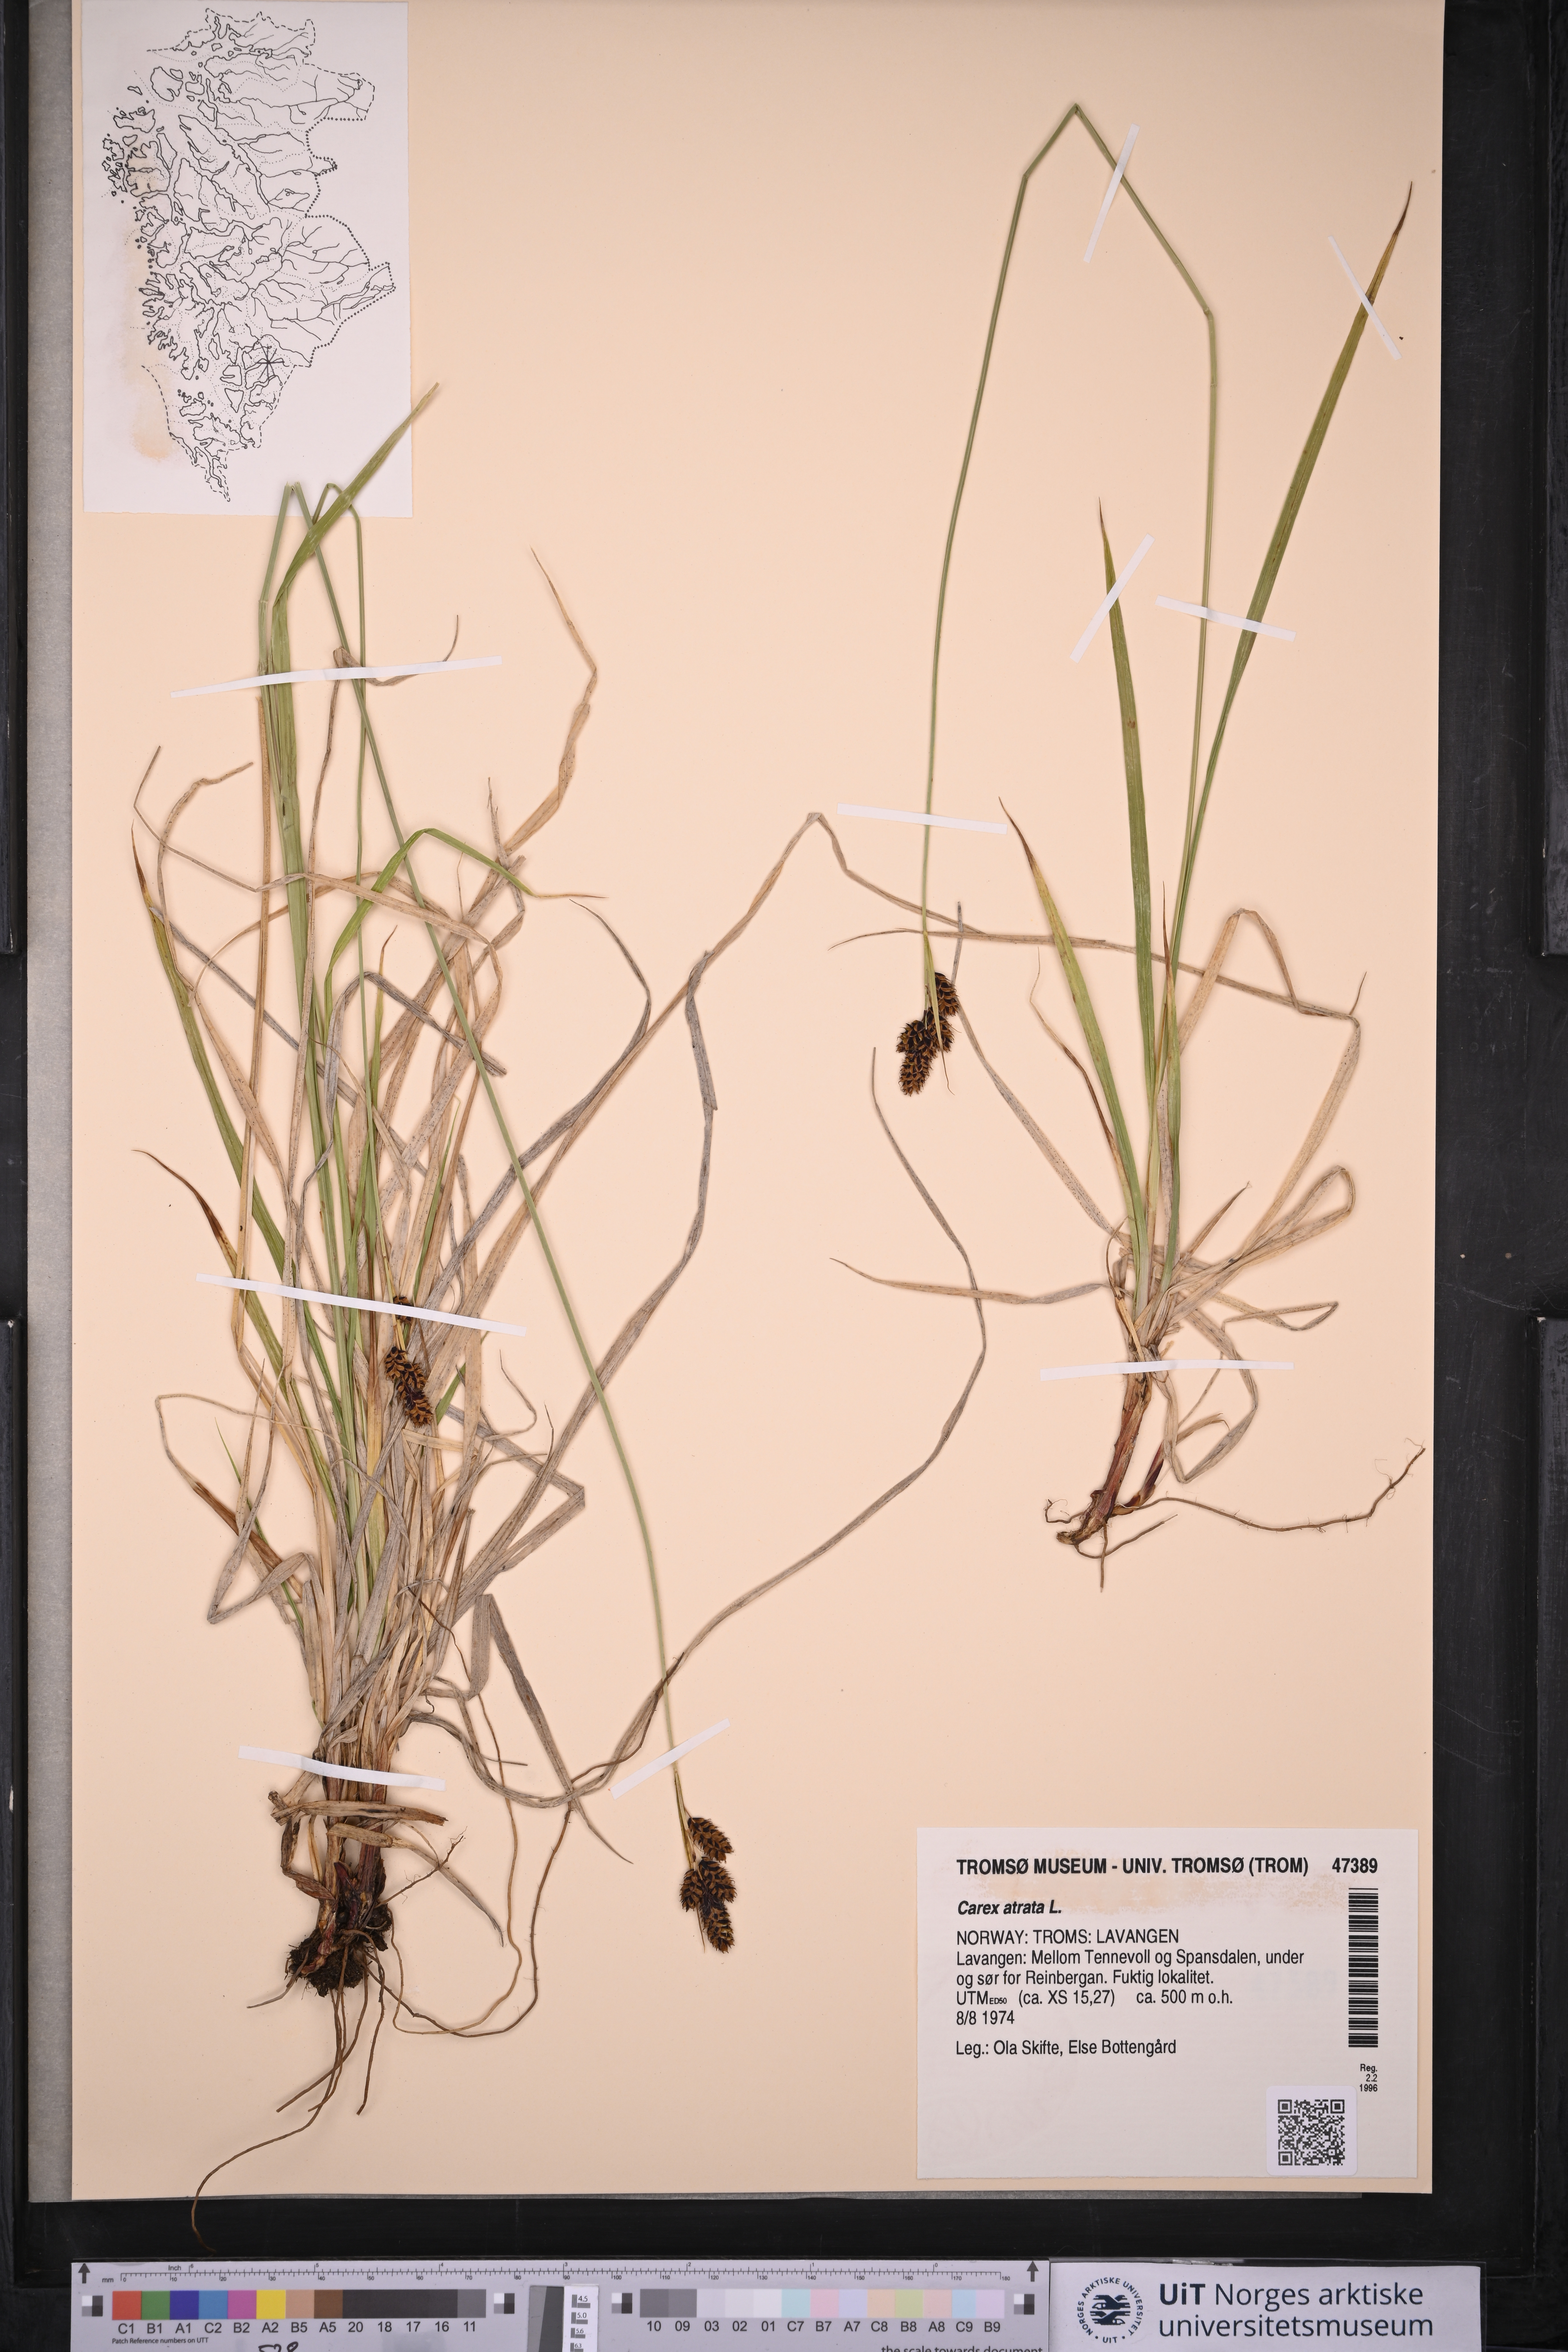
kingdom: Plantae
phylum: Tracheophyta
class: Liliopsida
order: Poales
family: Cyperaceae
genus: Carex
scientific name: Carex atrata
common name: Black alpine sedge
